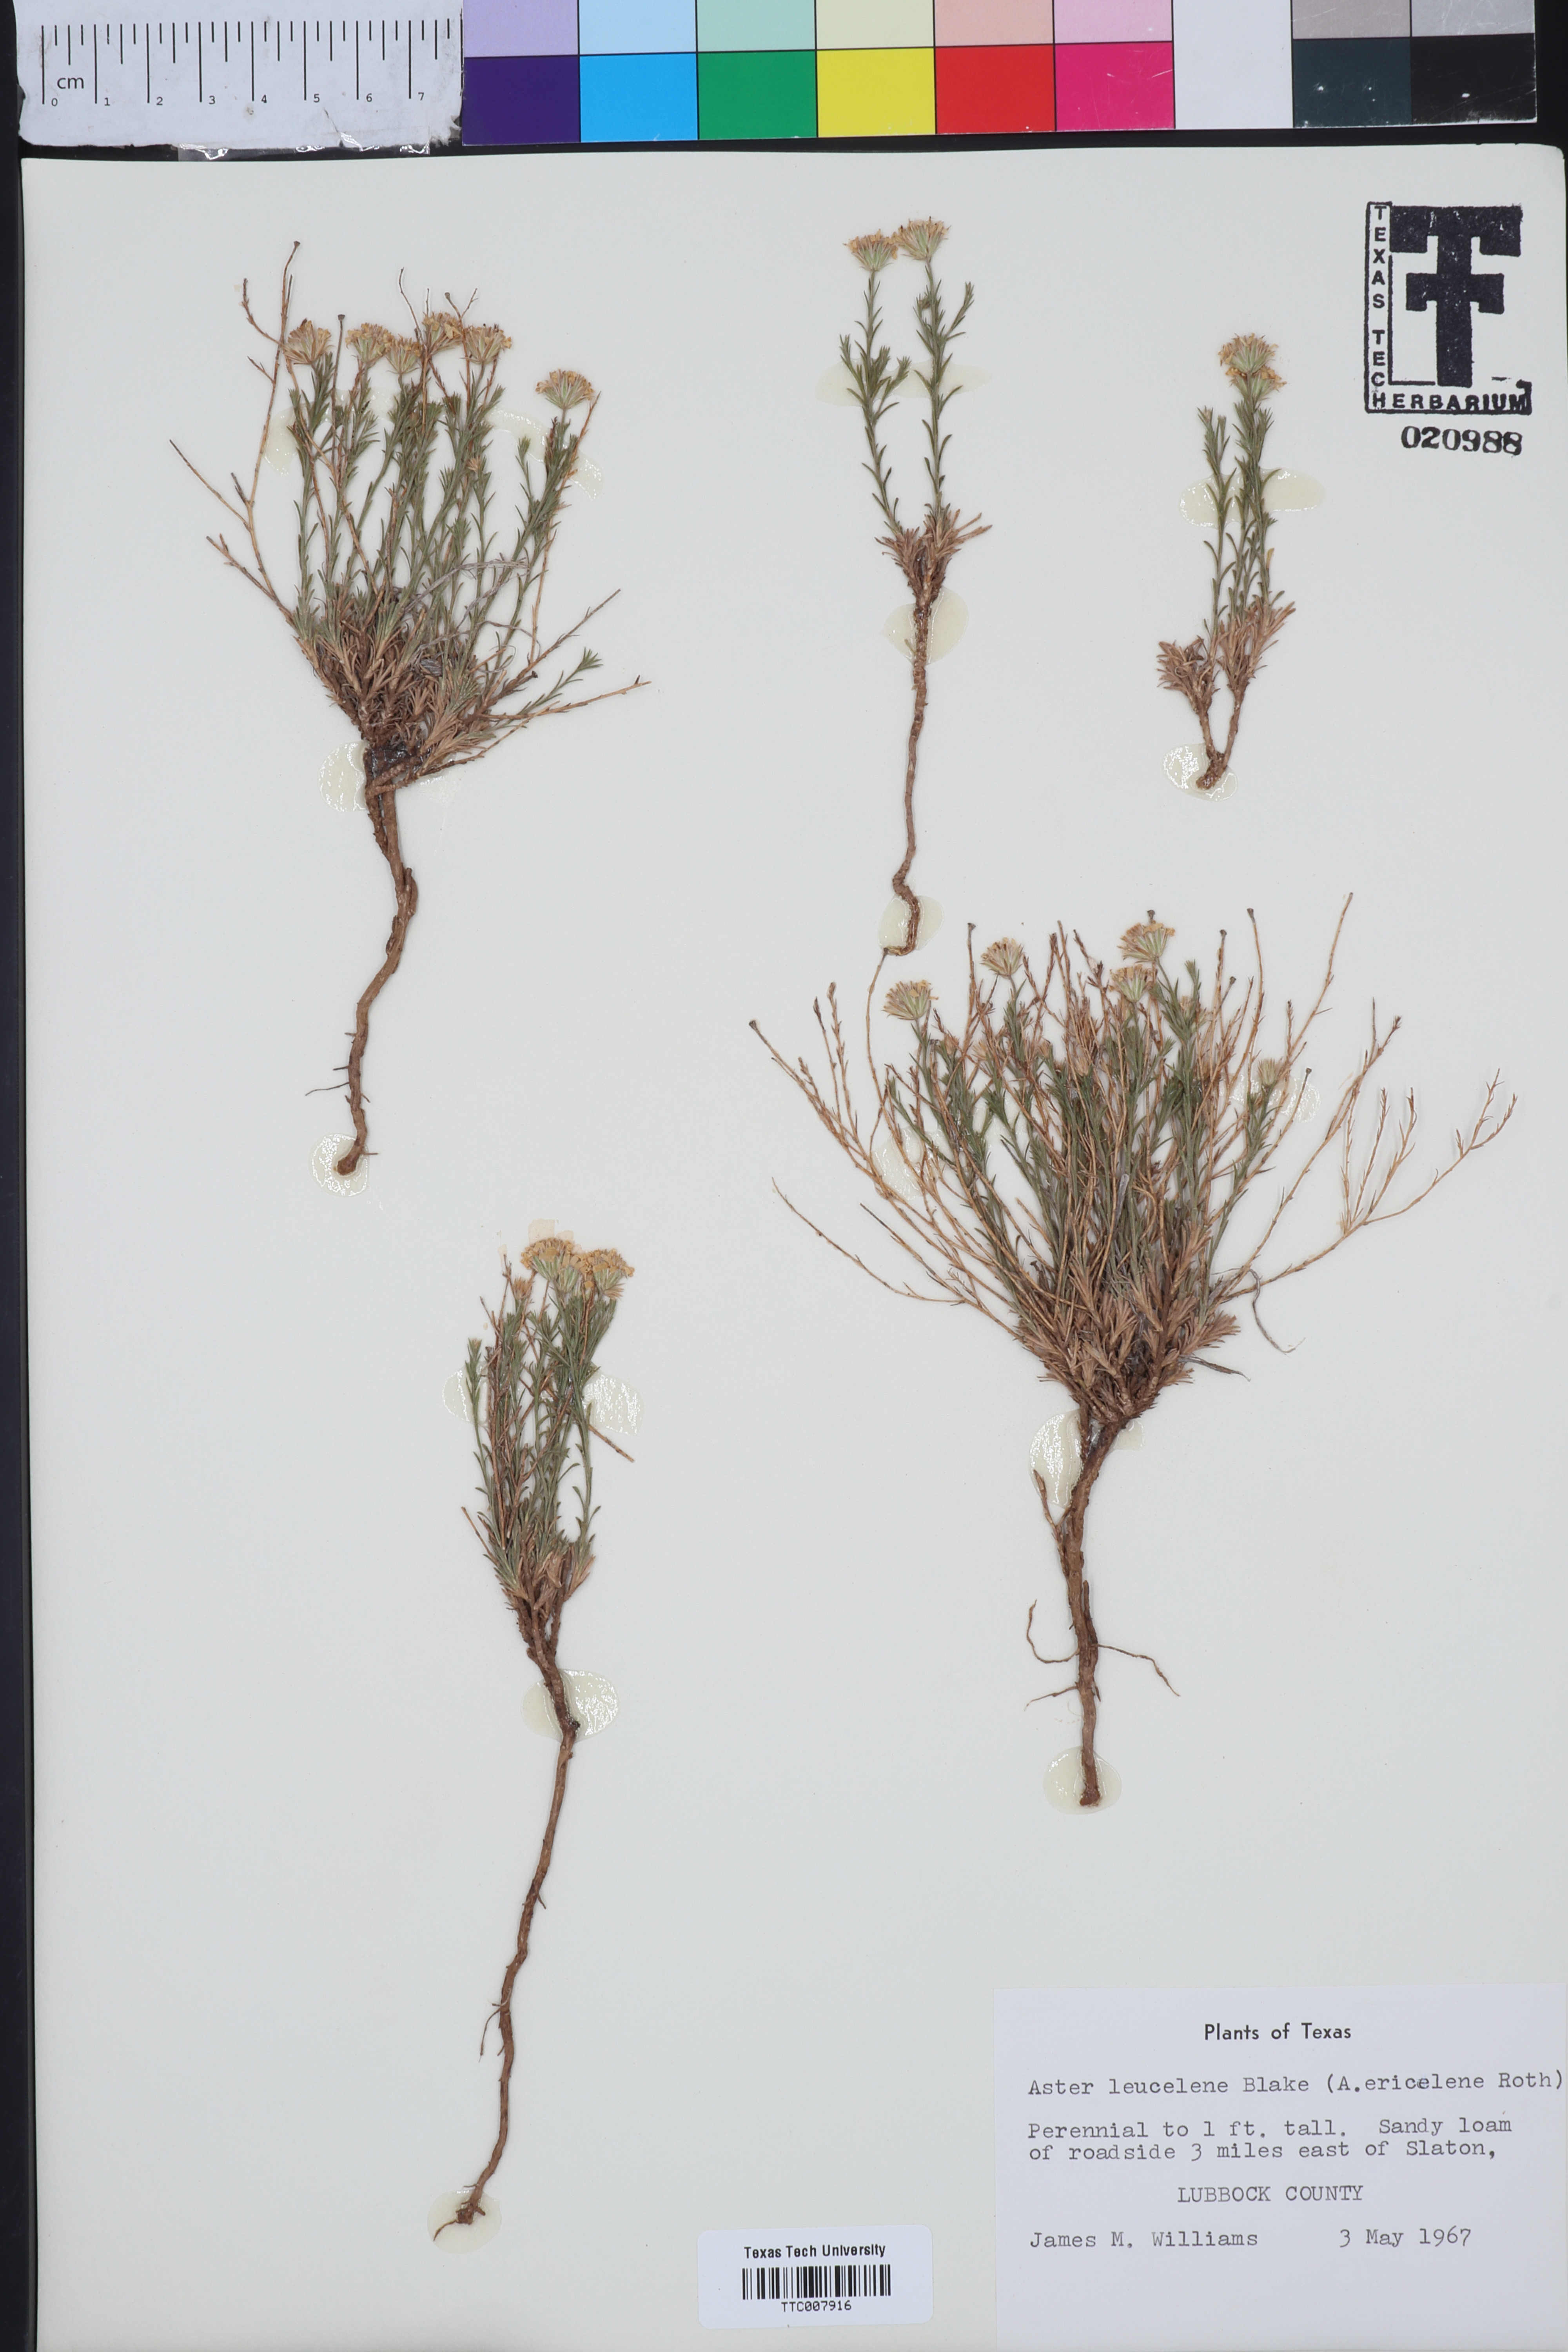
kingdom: Plantae
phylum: Tracheophyta
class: Magnoliopsida
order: Asterales
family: Asteraceae
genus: Chaetopappa
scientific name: Chaetopappa ericoides
